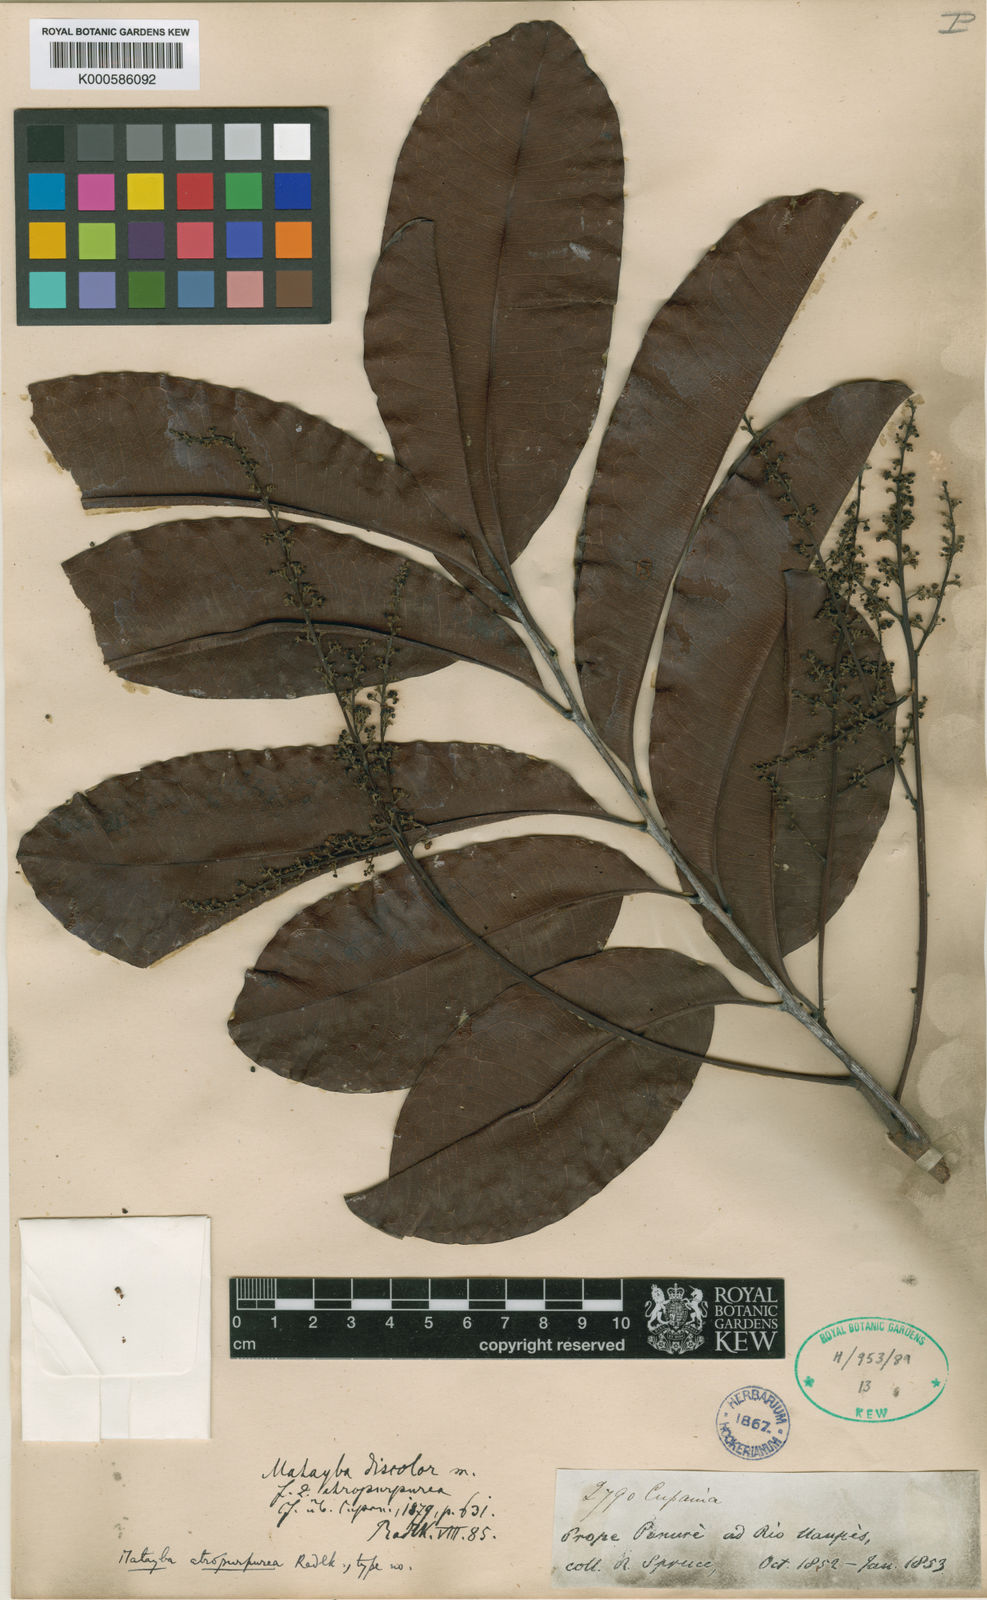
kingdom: Plantae
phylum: Tracheophyta
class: Magnoliopsida
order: Sapindales
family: Sapindaceae
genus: Matayba
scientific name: Matayba atropurpurea
